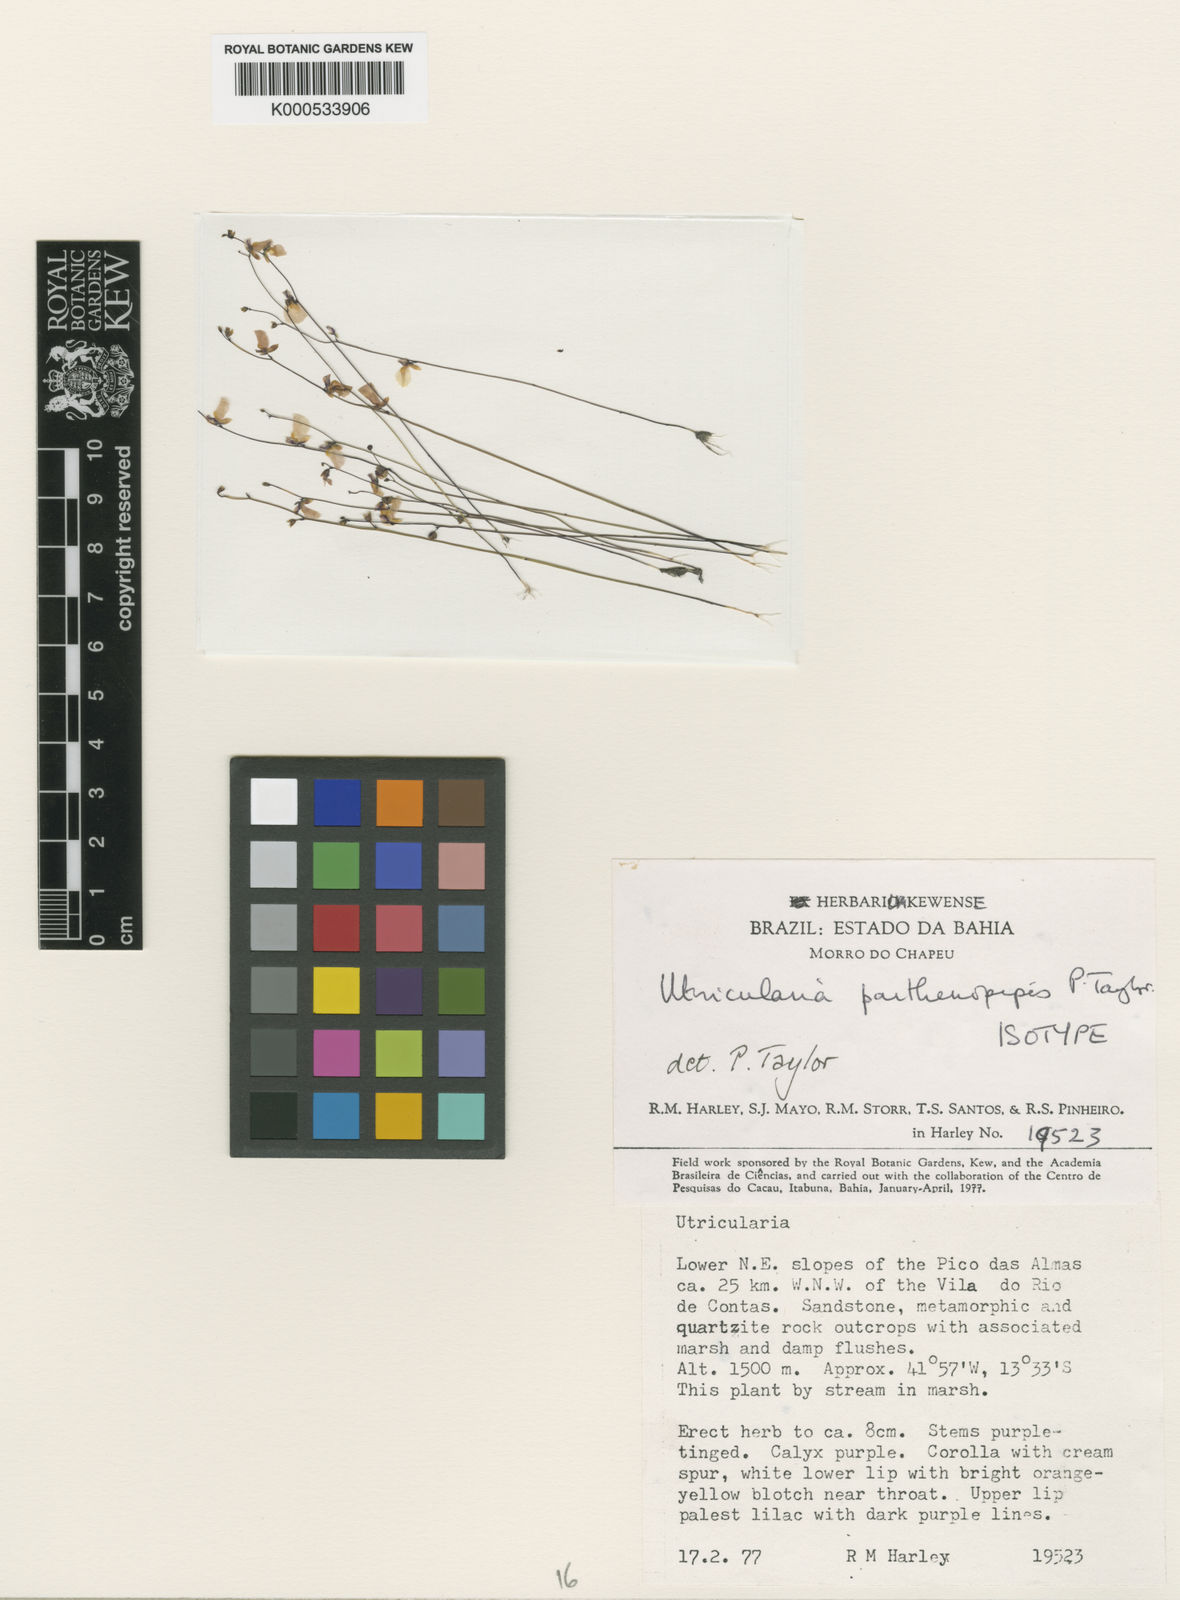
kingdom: Plantae
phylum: Tracheophyta
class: Magnoliopsida
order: Lamiales
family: Lentibulariaceae
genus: Utricularia
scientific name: Utricularia parthenopipes
